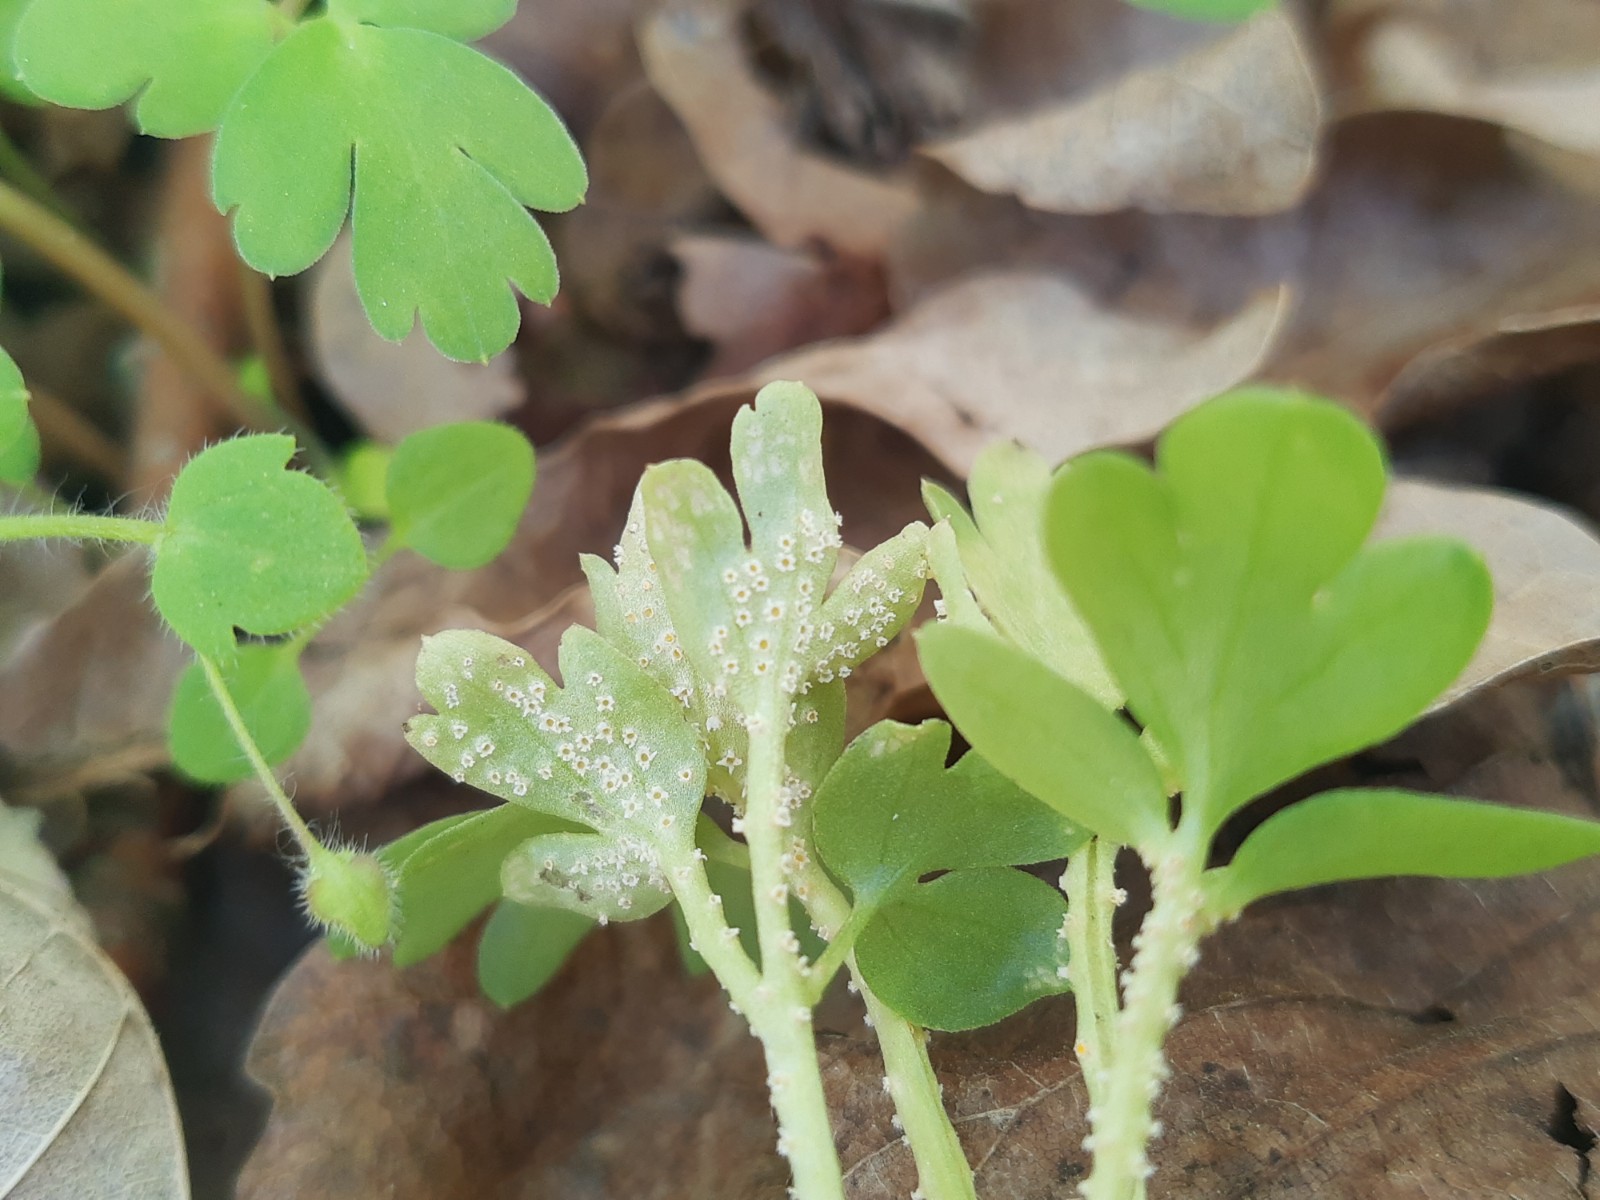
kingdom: Fungi
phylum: Basidiomycota
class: Pucciniomycetes
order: Pucciniales
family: Pucciniaceae
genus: Puccinia
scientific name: Puccinia albescens
